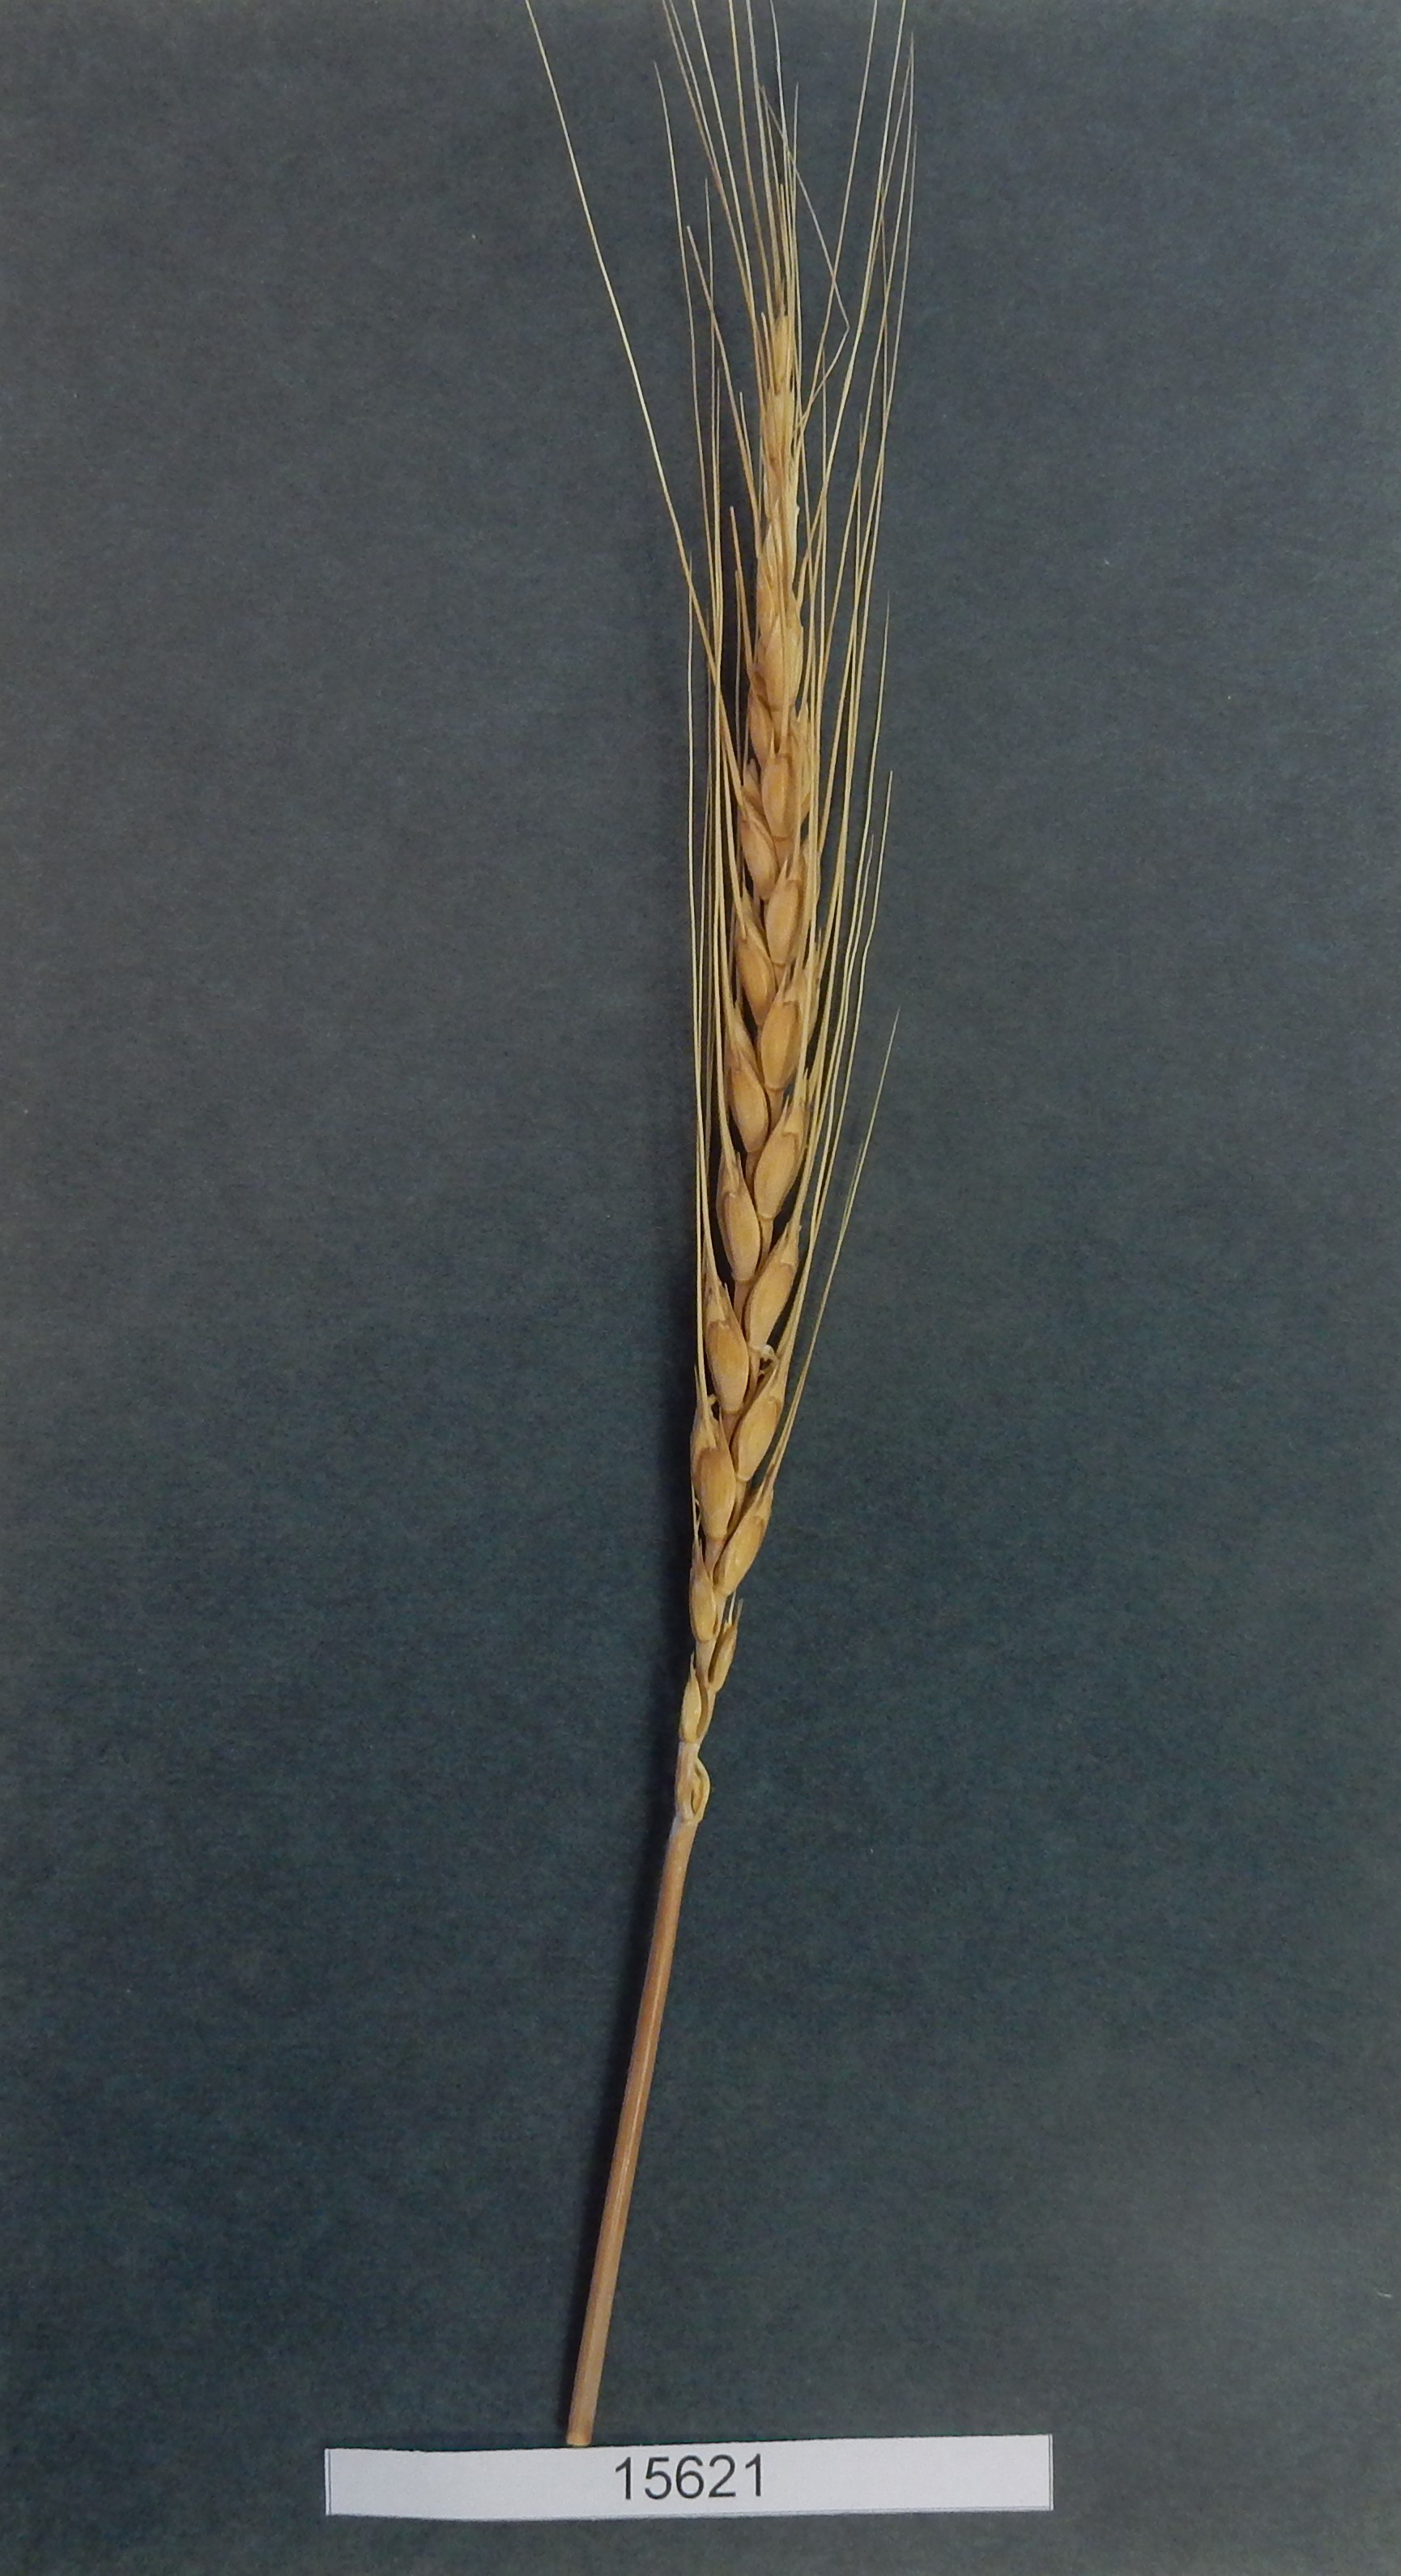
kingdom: Plantae
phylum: Tracheophyta
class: Liliopsida
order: Poales
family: Poaceae
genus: Triticum
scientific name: Triticum aestivum
